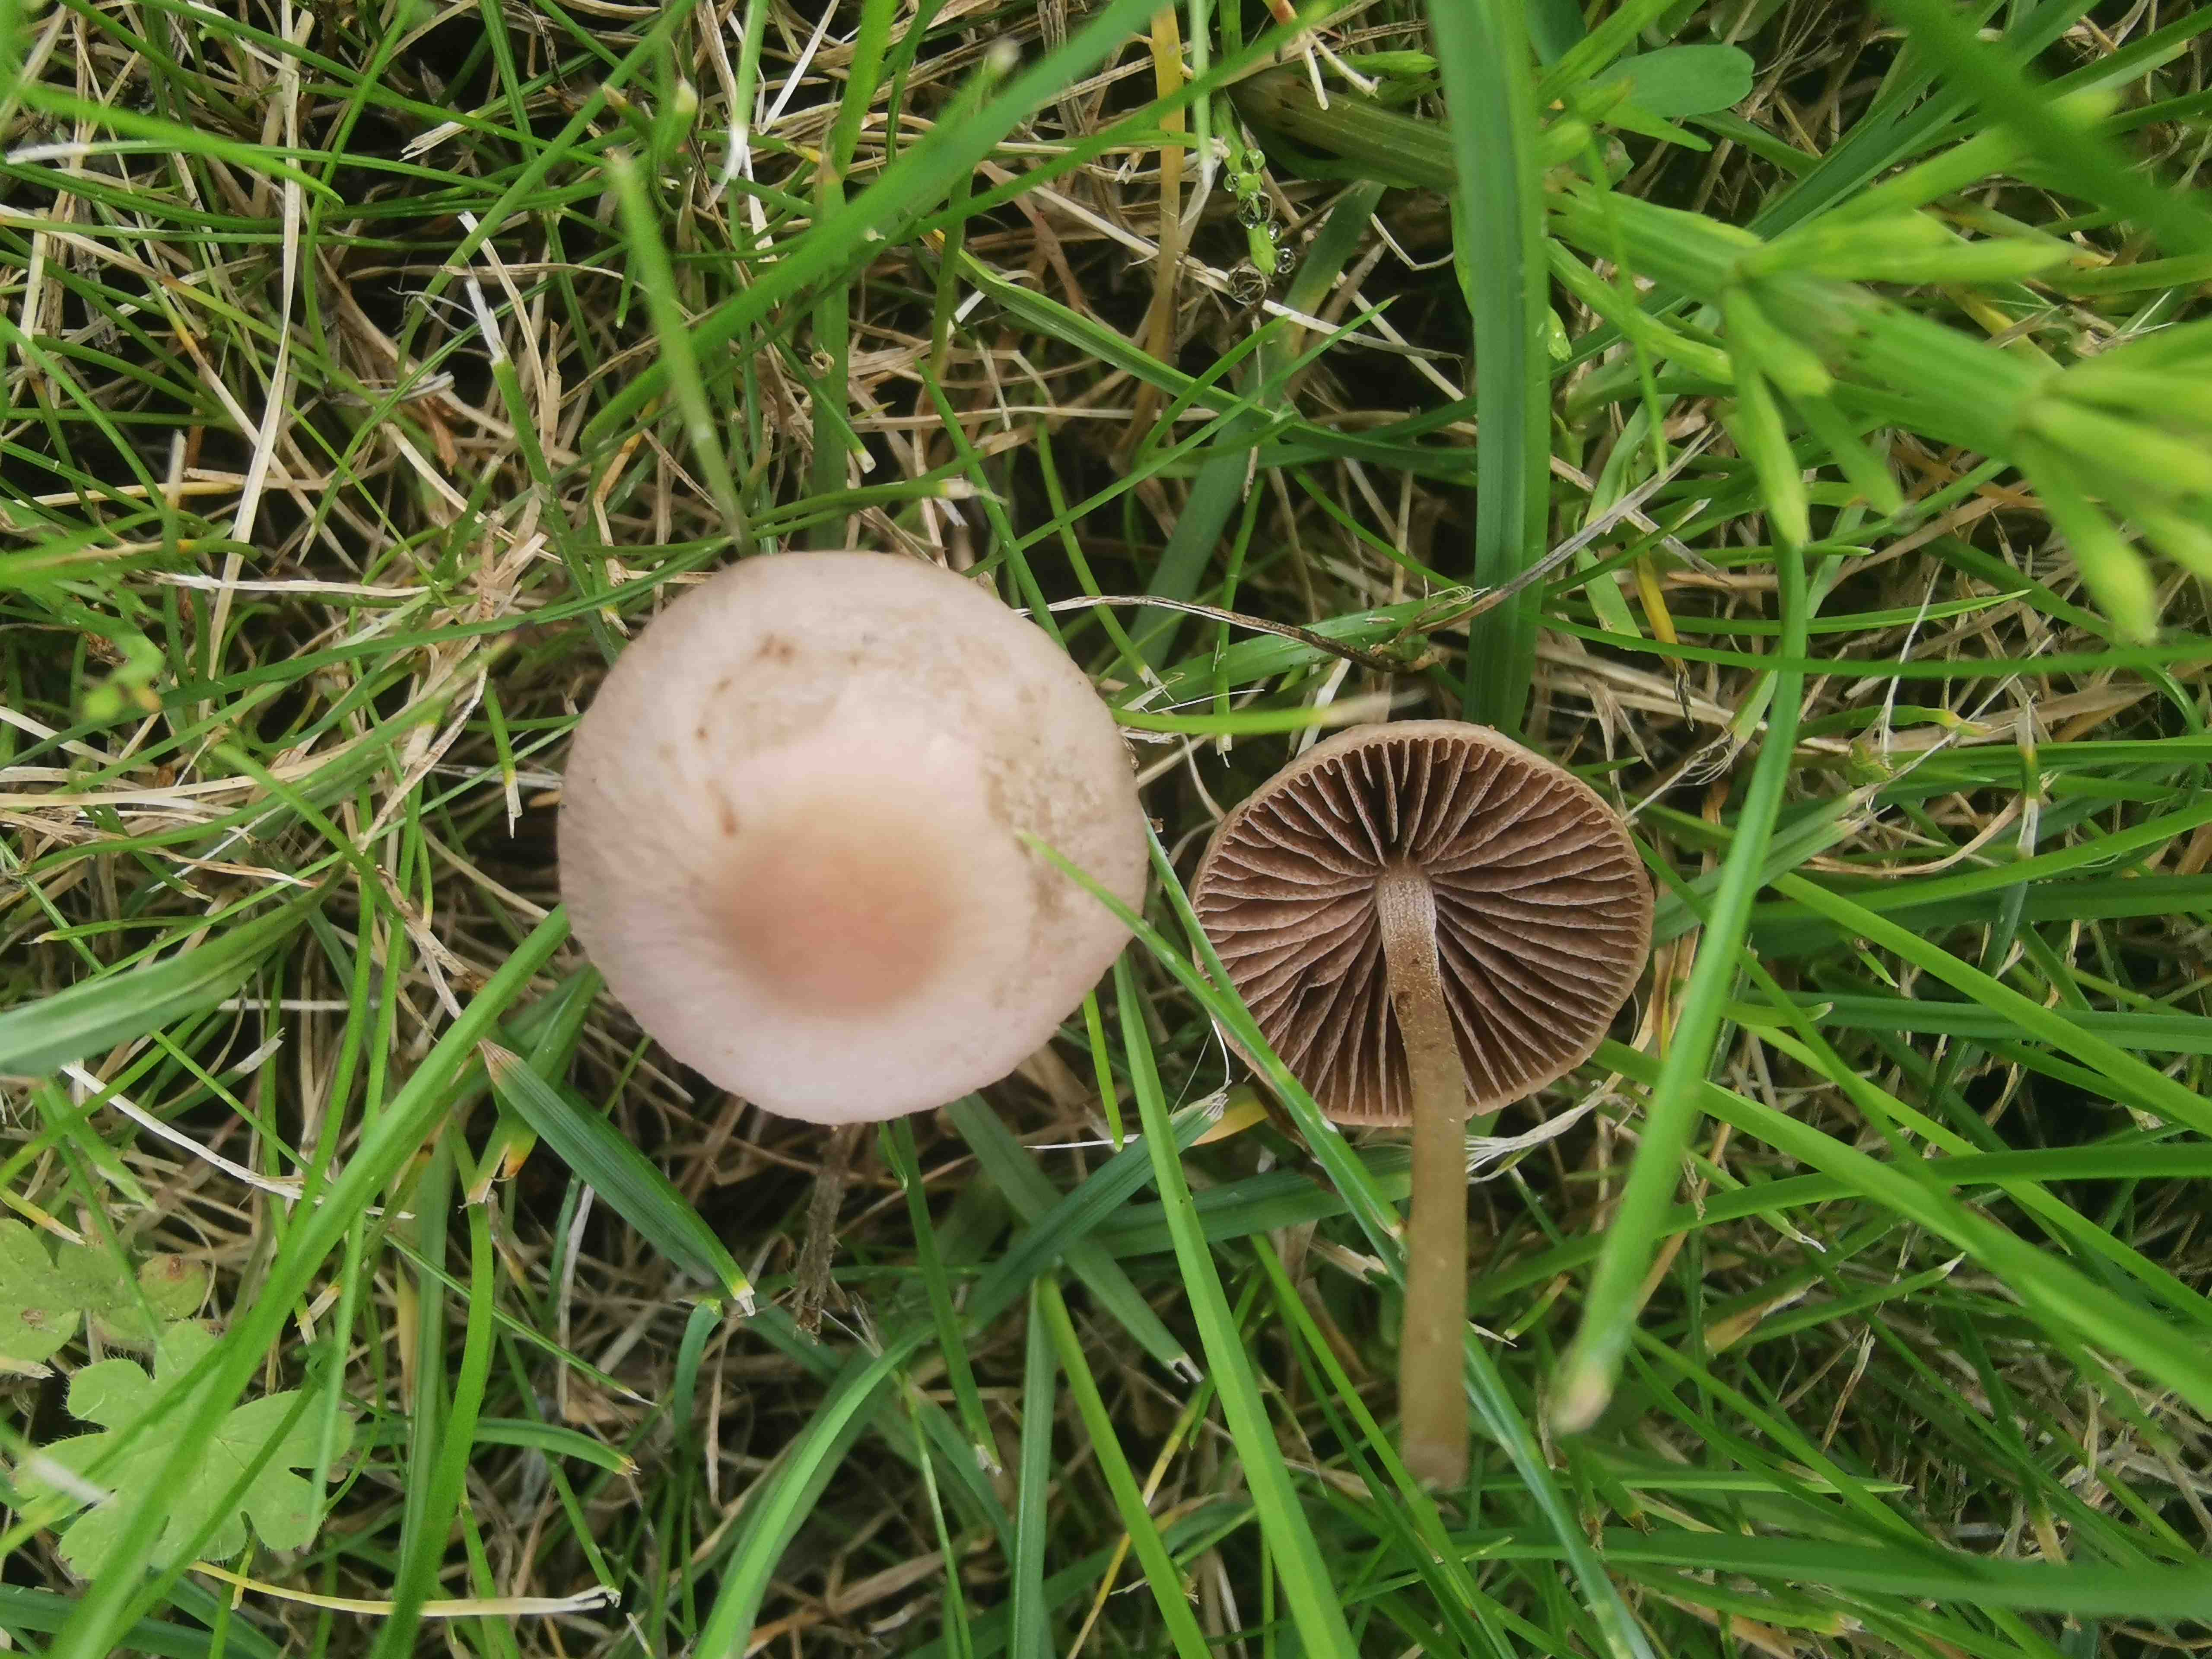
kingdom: Fungi
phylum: Basidiomycota
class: Agaricomycetes
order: Agaricales
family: Bolbitiaceae
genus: Panaeolina
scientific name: Panaeolina foenisecii
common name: høslætsvamp
